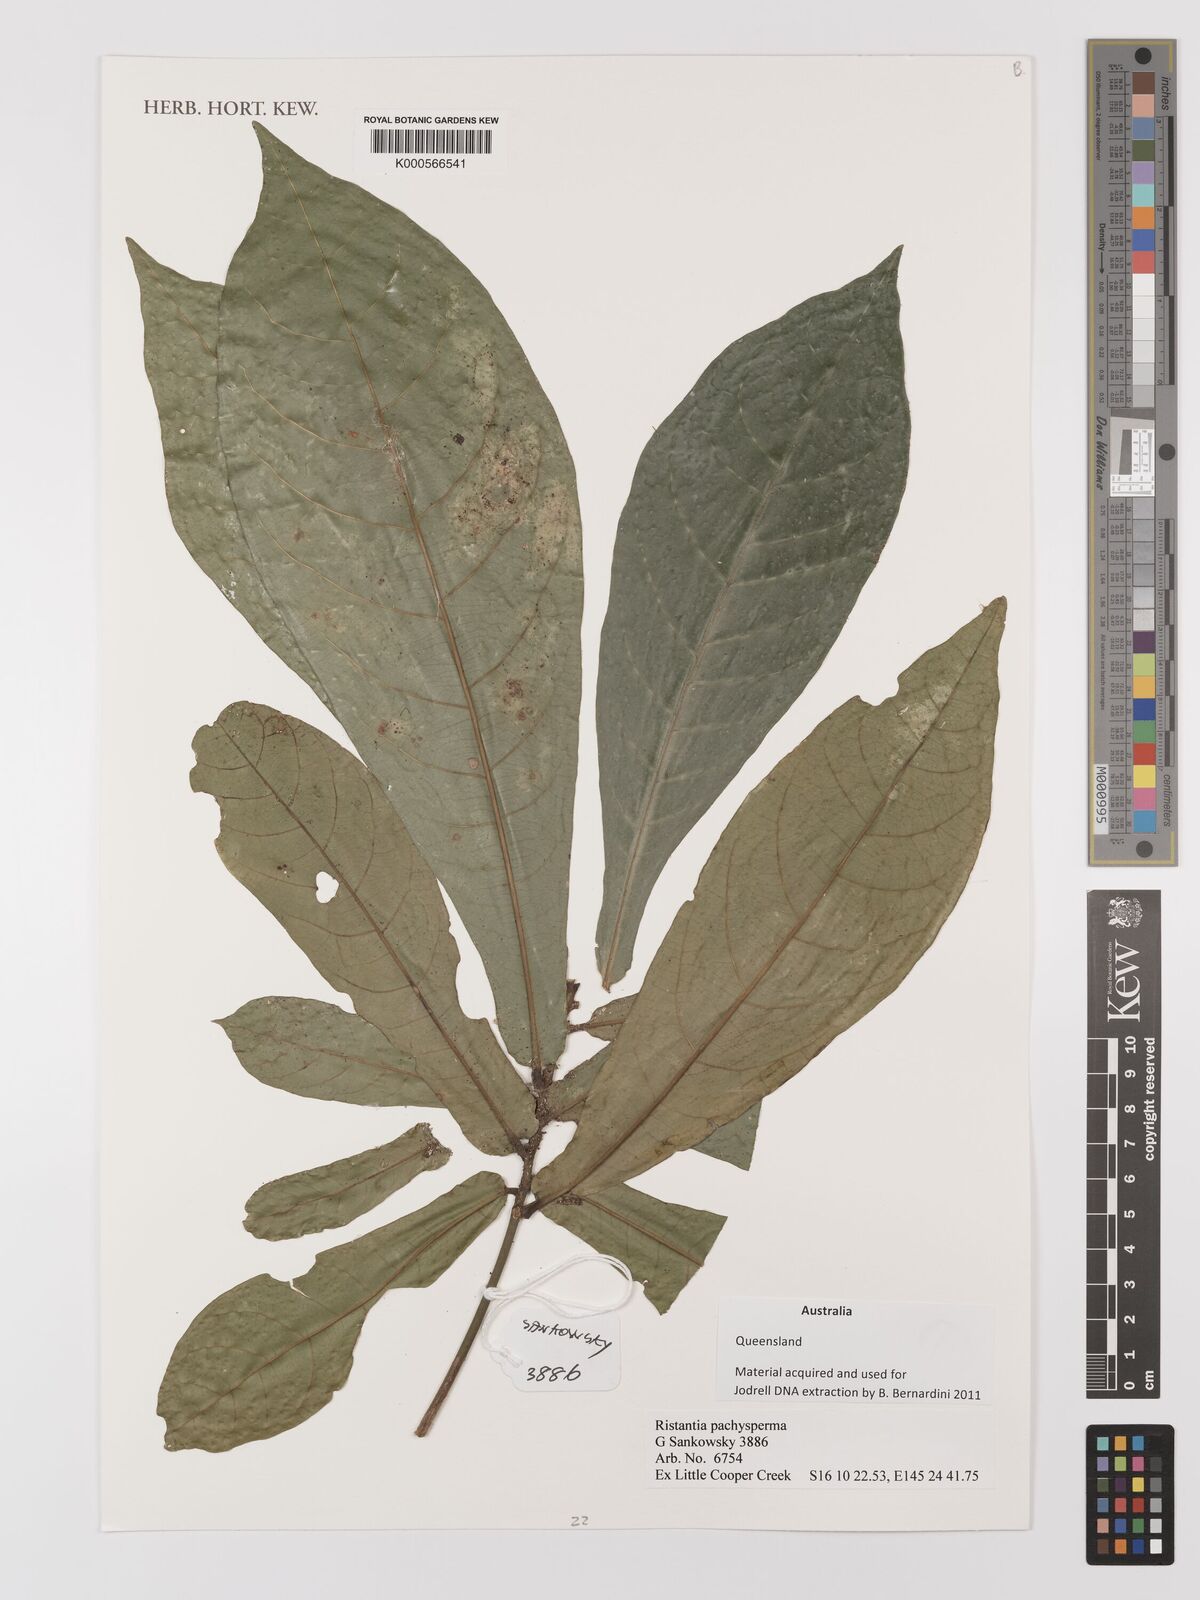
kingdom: Plantae
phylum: Tracheophyta
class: Magnoliopsida
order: Myrtales
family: Myrtaceae
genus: Ristantia
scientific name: Ristantia pachysperma
